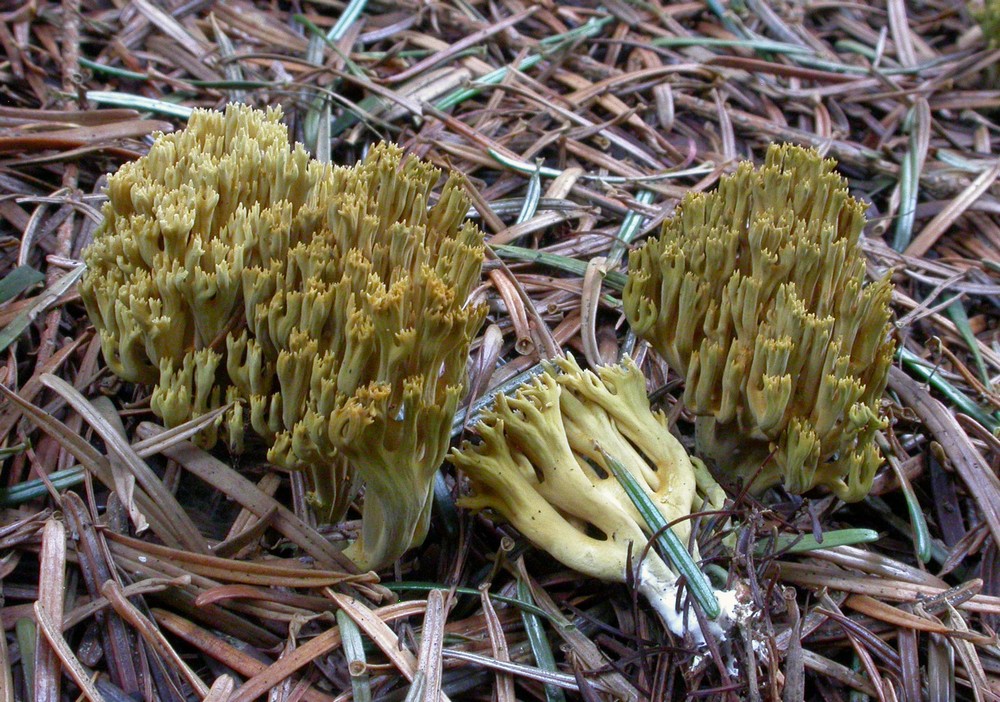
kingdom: Fungi
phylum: Basidiomycota
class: Agaricomycetes
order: Gomphales
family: Gomphaceae
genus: Phaeoclavulina
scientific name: Phaeoclavulina abietina
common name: gulgrøn koralsvamp
